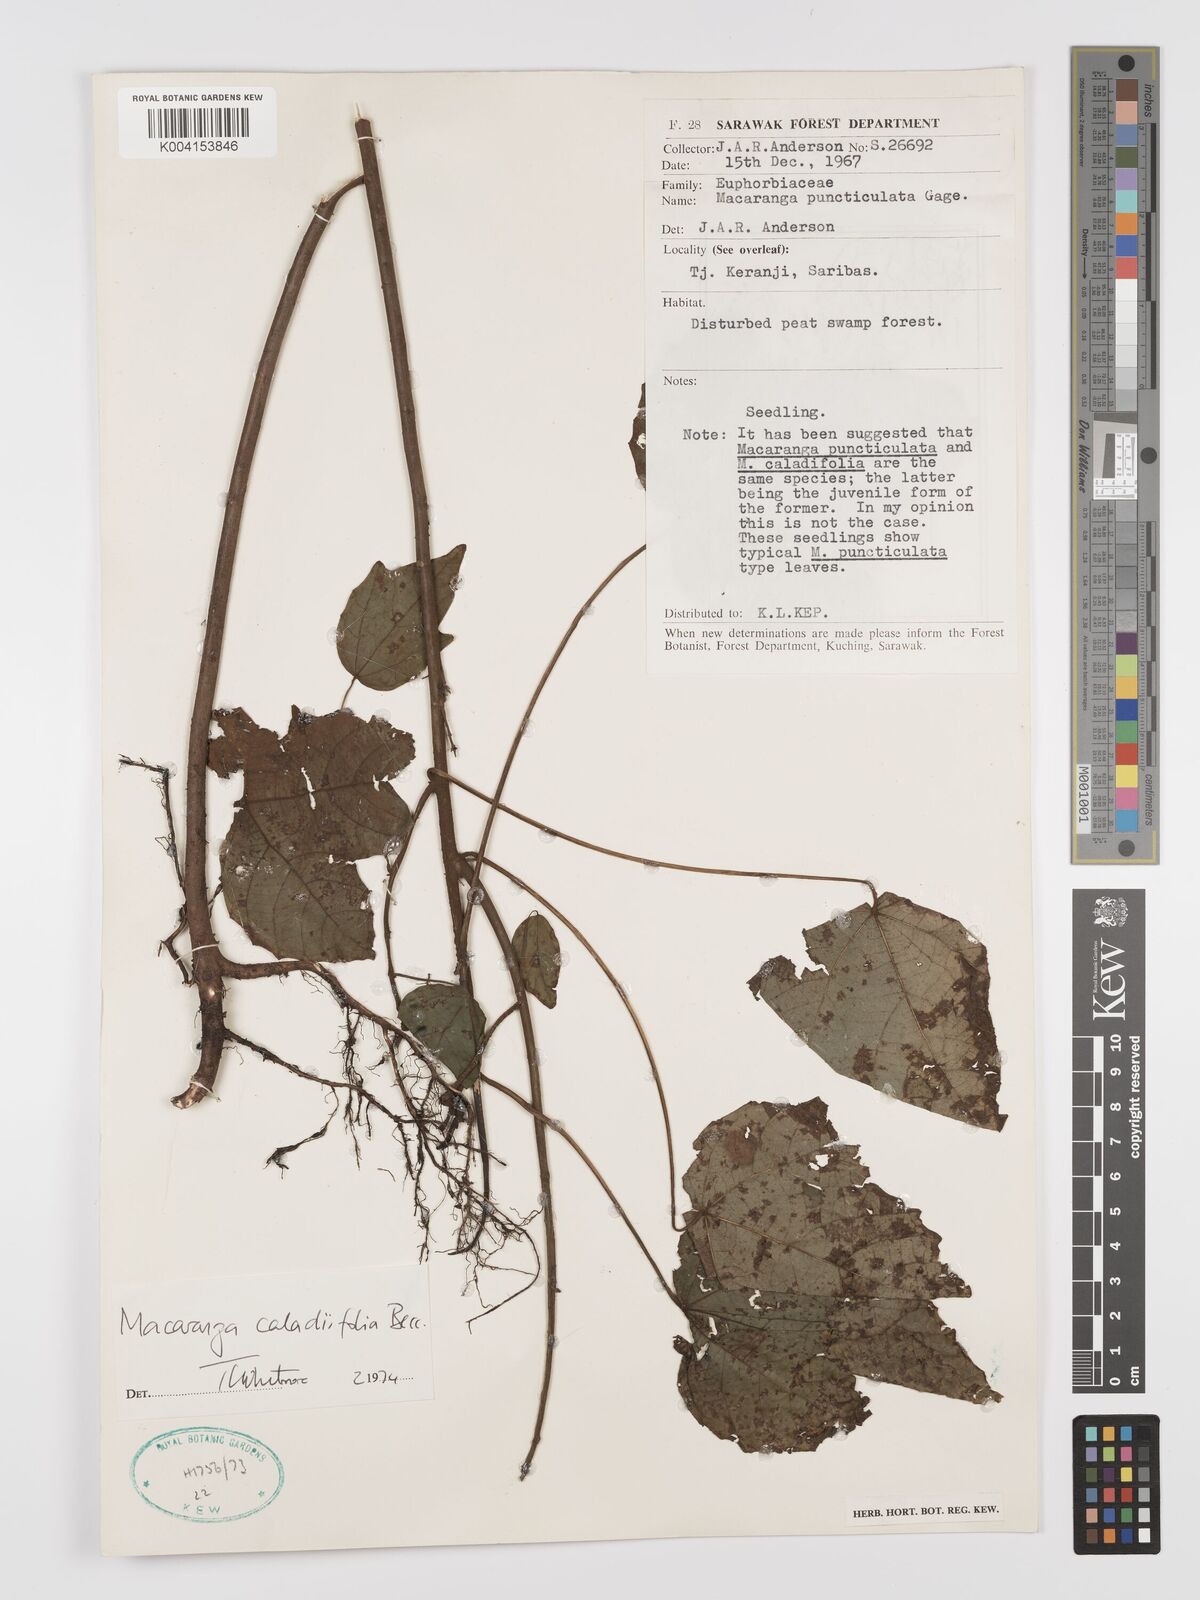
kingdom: Plantae
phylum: Tracheophyta
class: Magnoliopsida
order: Malpighiales
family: Euphorbiaceae
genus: Macaranga
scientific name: Macaranga caladiifolia
